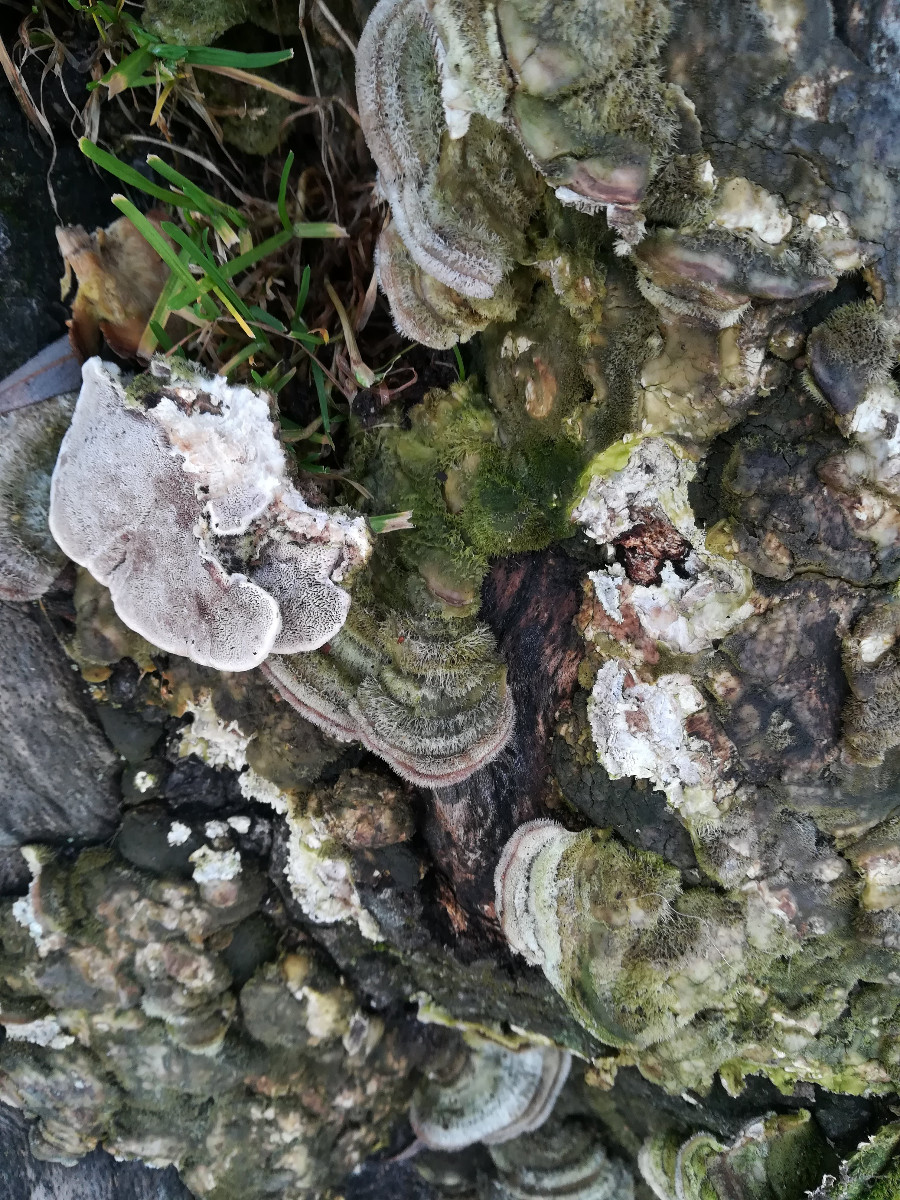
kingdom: Fungi
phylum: Basidiomycota
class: Agaricomycetes
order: Polyporales
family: Polyporaceae
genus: Trametes
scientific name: Trametes hirsuta
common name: håret læderporesvamp
